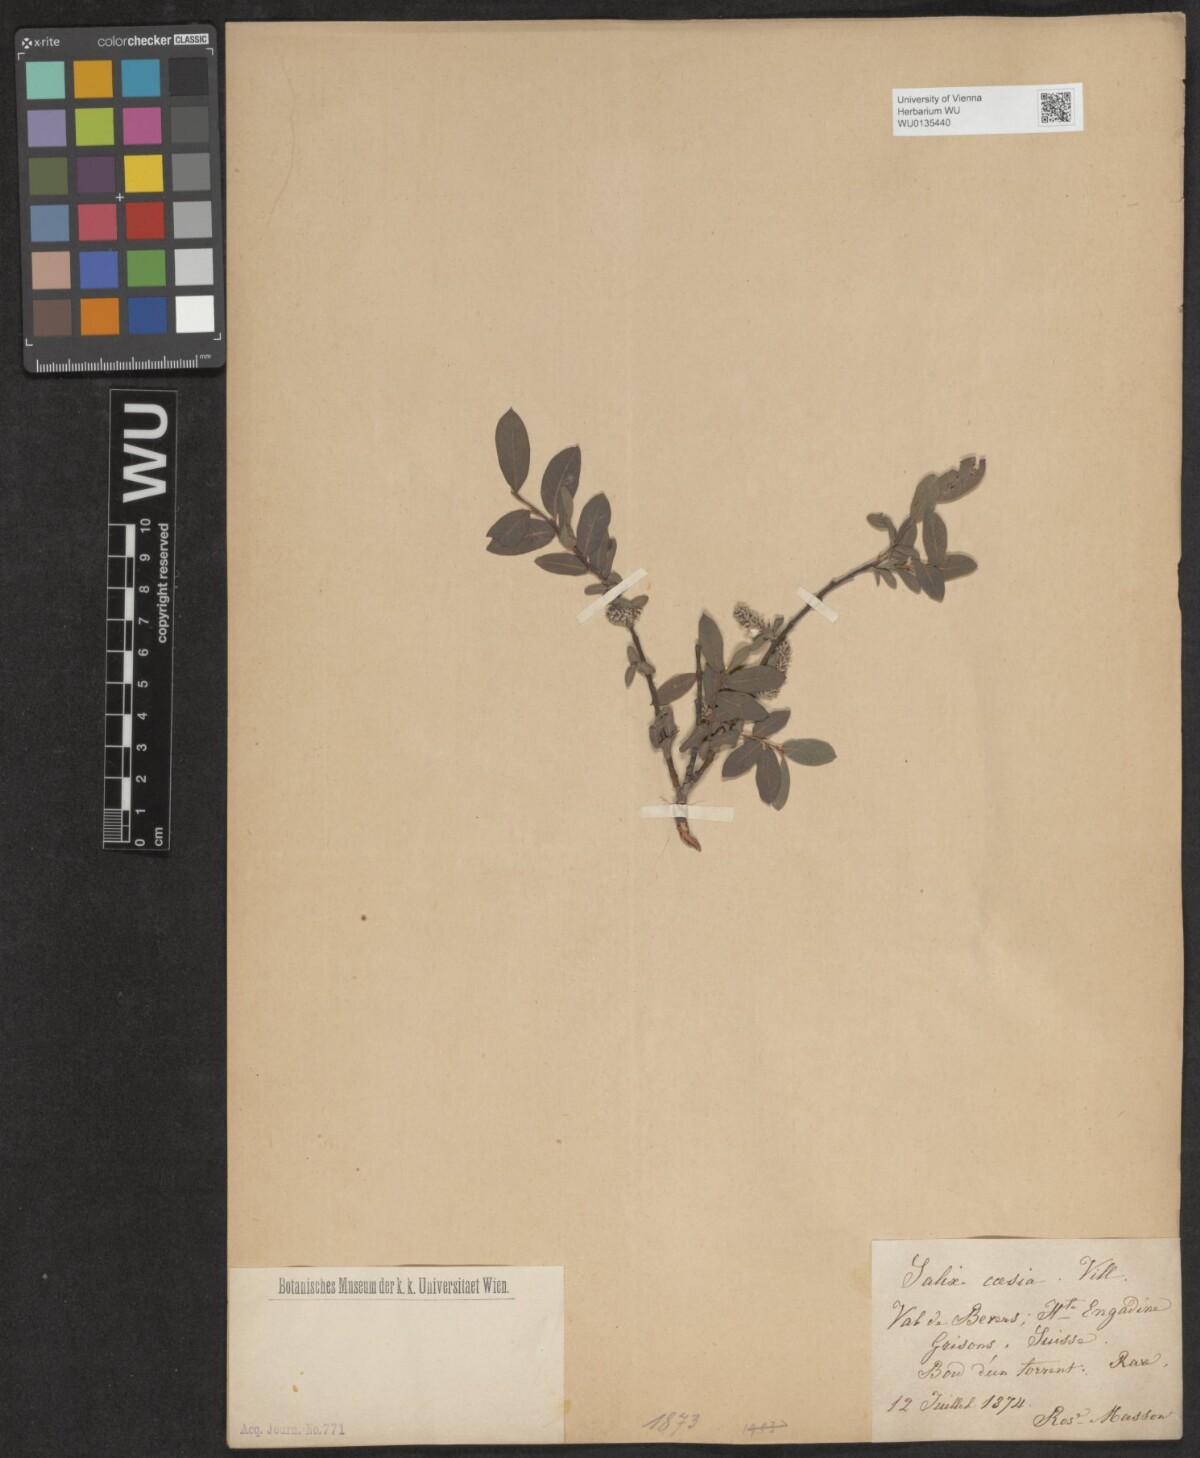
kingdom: Plantae
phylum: Tracheophyta
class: Magnoliopsida
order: Malpighiales
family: Salicaceae
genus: Salix
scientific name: Salix caesia
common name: Blue willow
